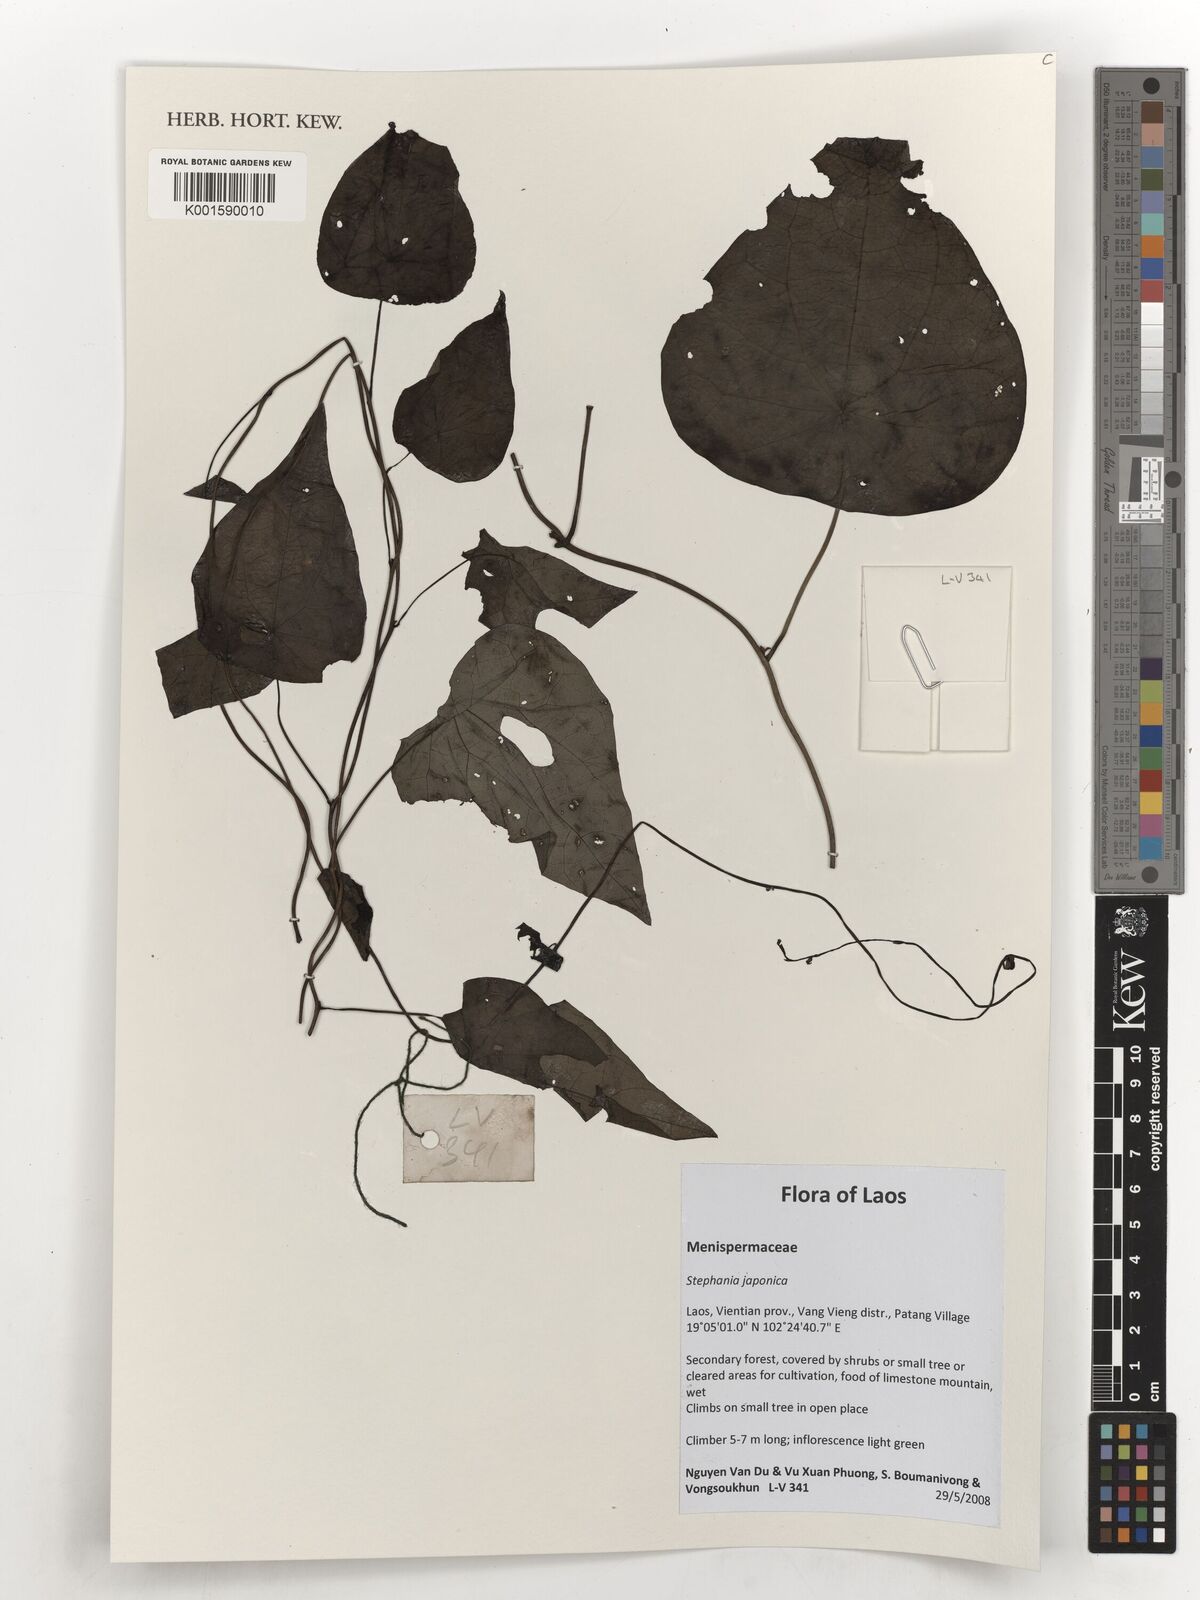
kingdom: Plantae
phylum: Tracheophyta
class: Magnoliopsida
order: Ranunculales
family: Menispermaceae
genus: Stephania
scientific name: Stephania japonica
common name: Snake vine
